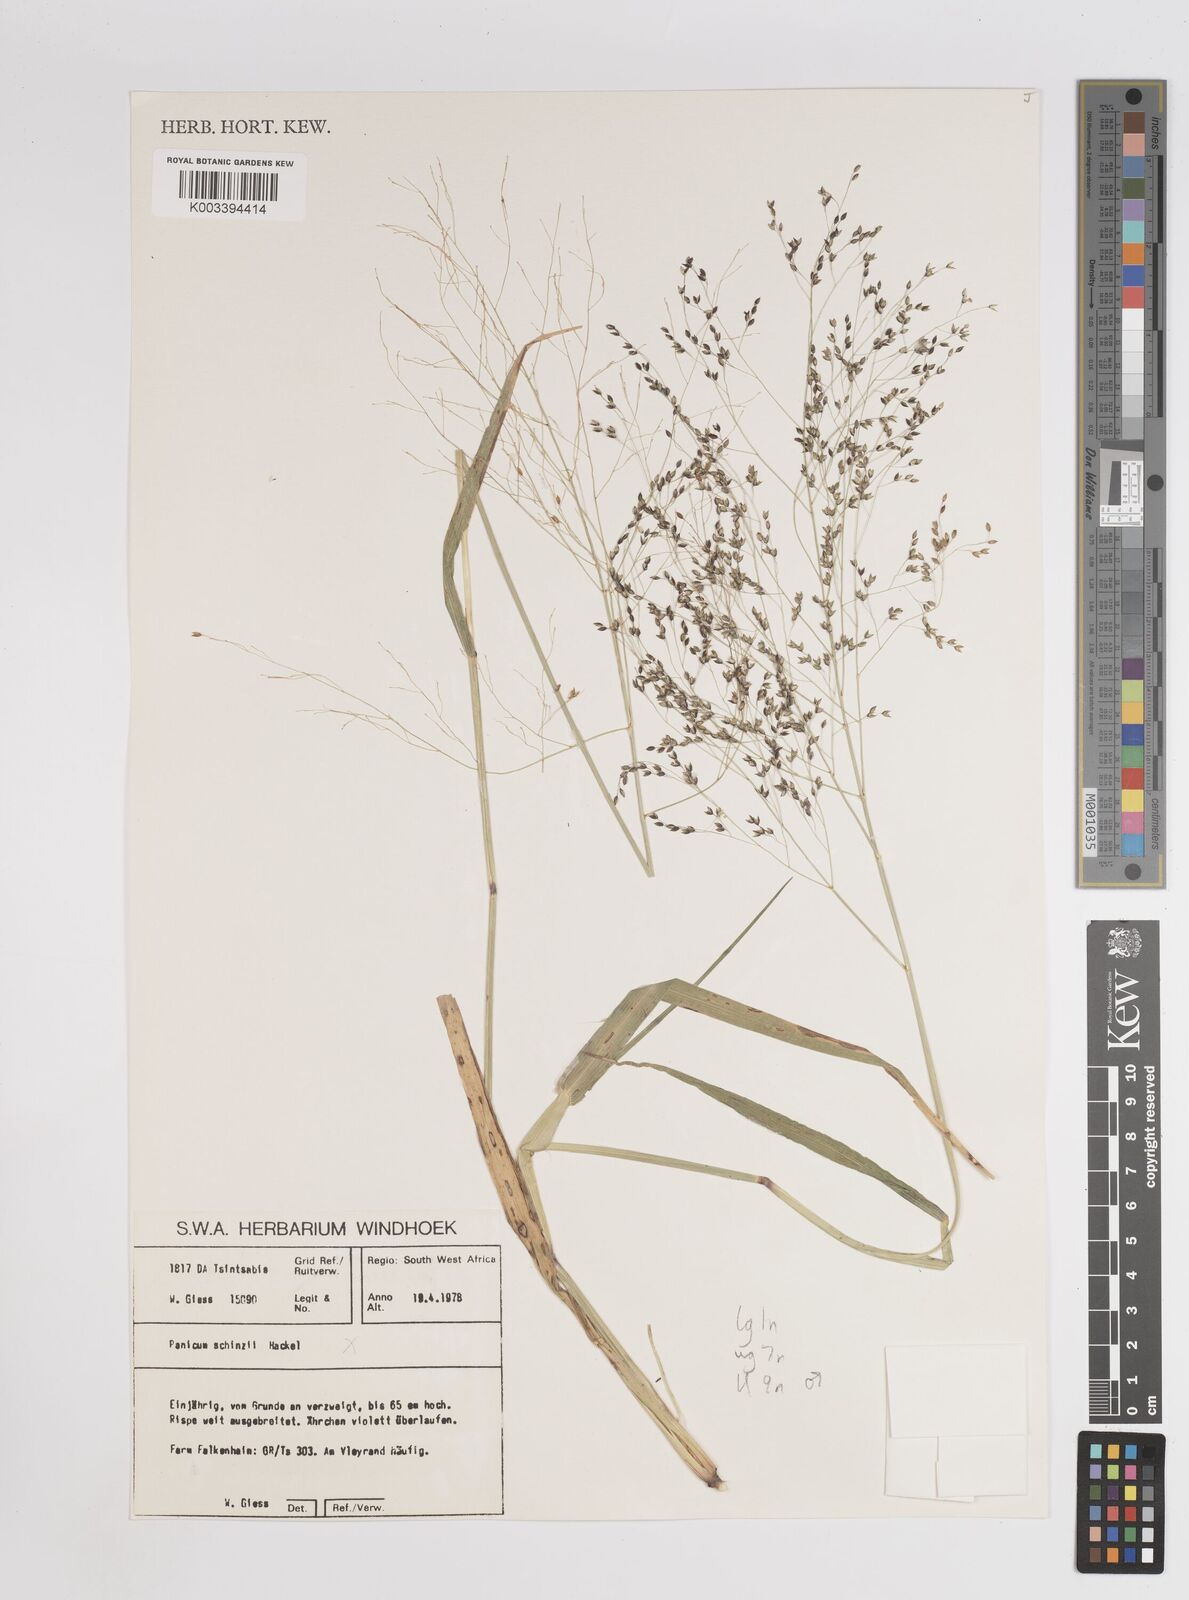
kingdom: Plantae
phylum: Tracheophyta
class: Liliopsida
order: Poales
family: Poaceae
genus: Panicum
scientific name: Panicum simulans
